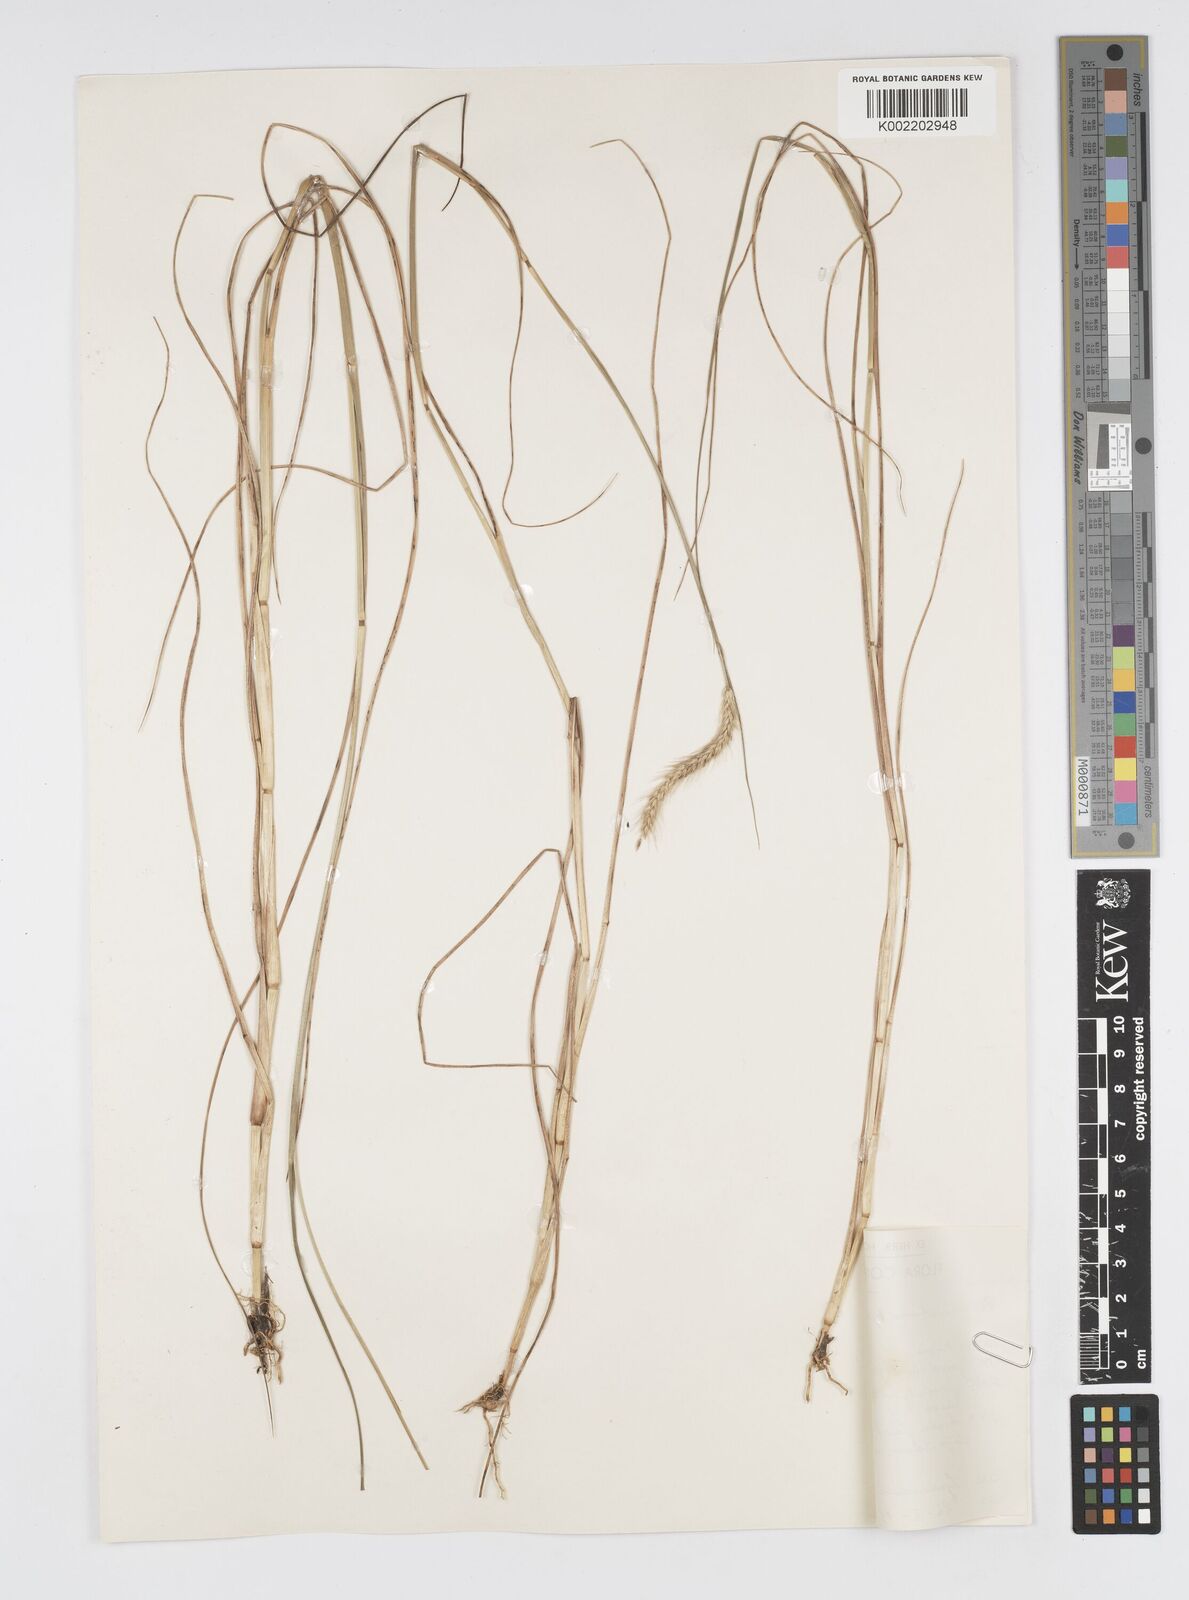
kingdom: Plantae
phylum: Tracheophyta
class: Liliopsida
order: Poales
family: Poaceae
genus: Cenchrus
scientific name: Cenchrus geniculatus
